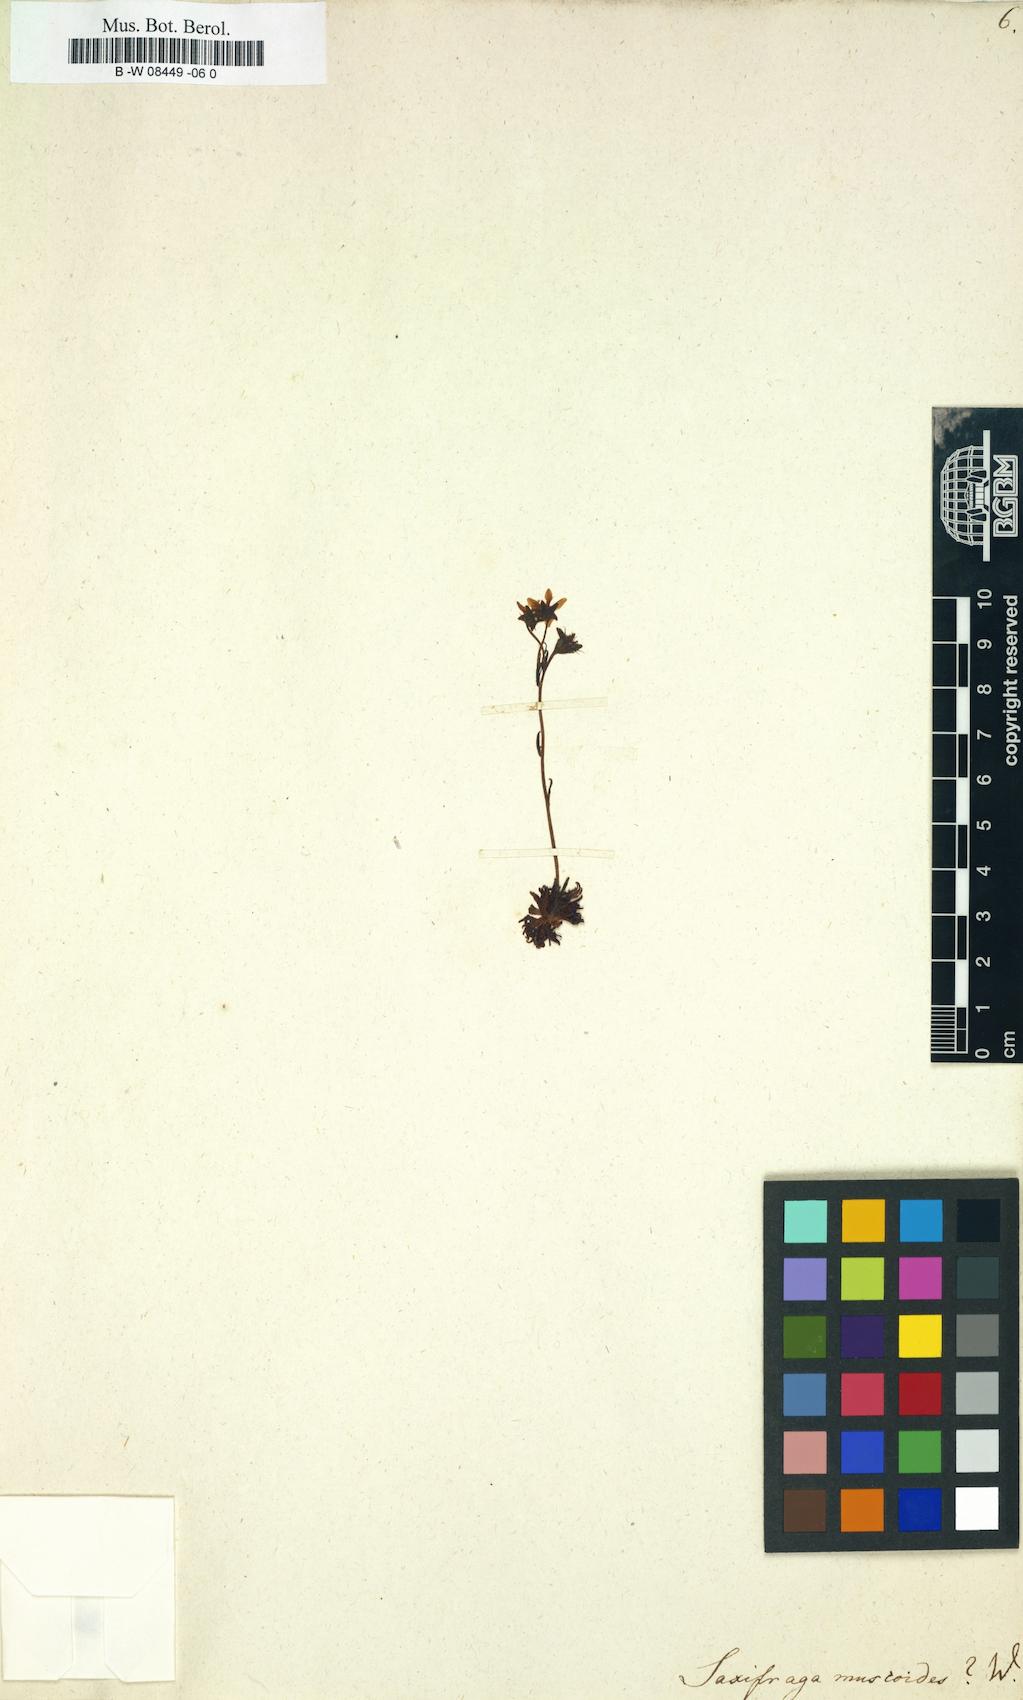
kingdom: Plantae
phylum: Tracheophyta
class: Magnoliopsida
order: Saxifragales
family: Saxifragaceae
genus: Saxifraga
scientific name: Saxifraga muscoides
